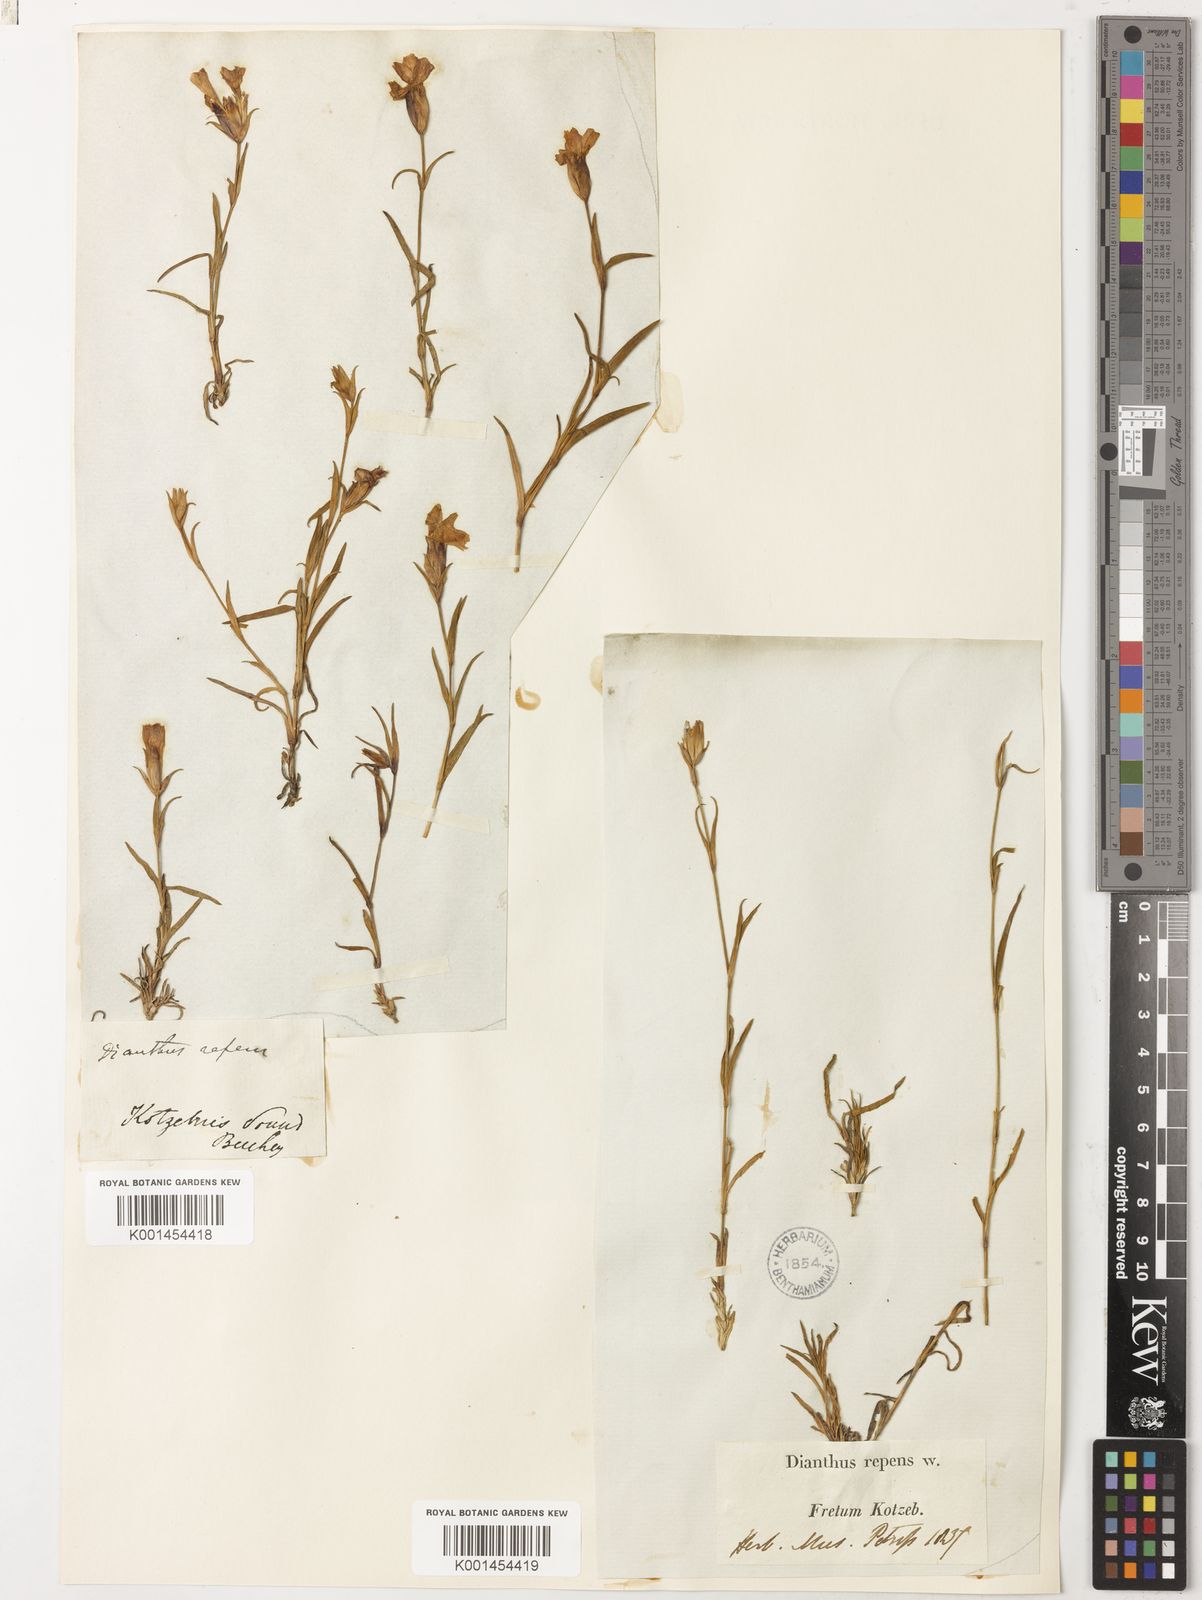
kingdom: Plantae
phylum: Tracheophyta
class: Magnoliopsida
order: Caryophyllales
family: Caryophyllaceae
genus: Dianthus
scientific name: Dianthus repens
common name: Northern pink
